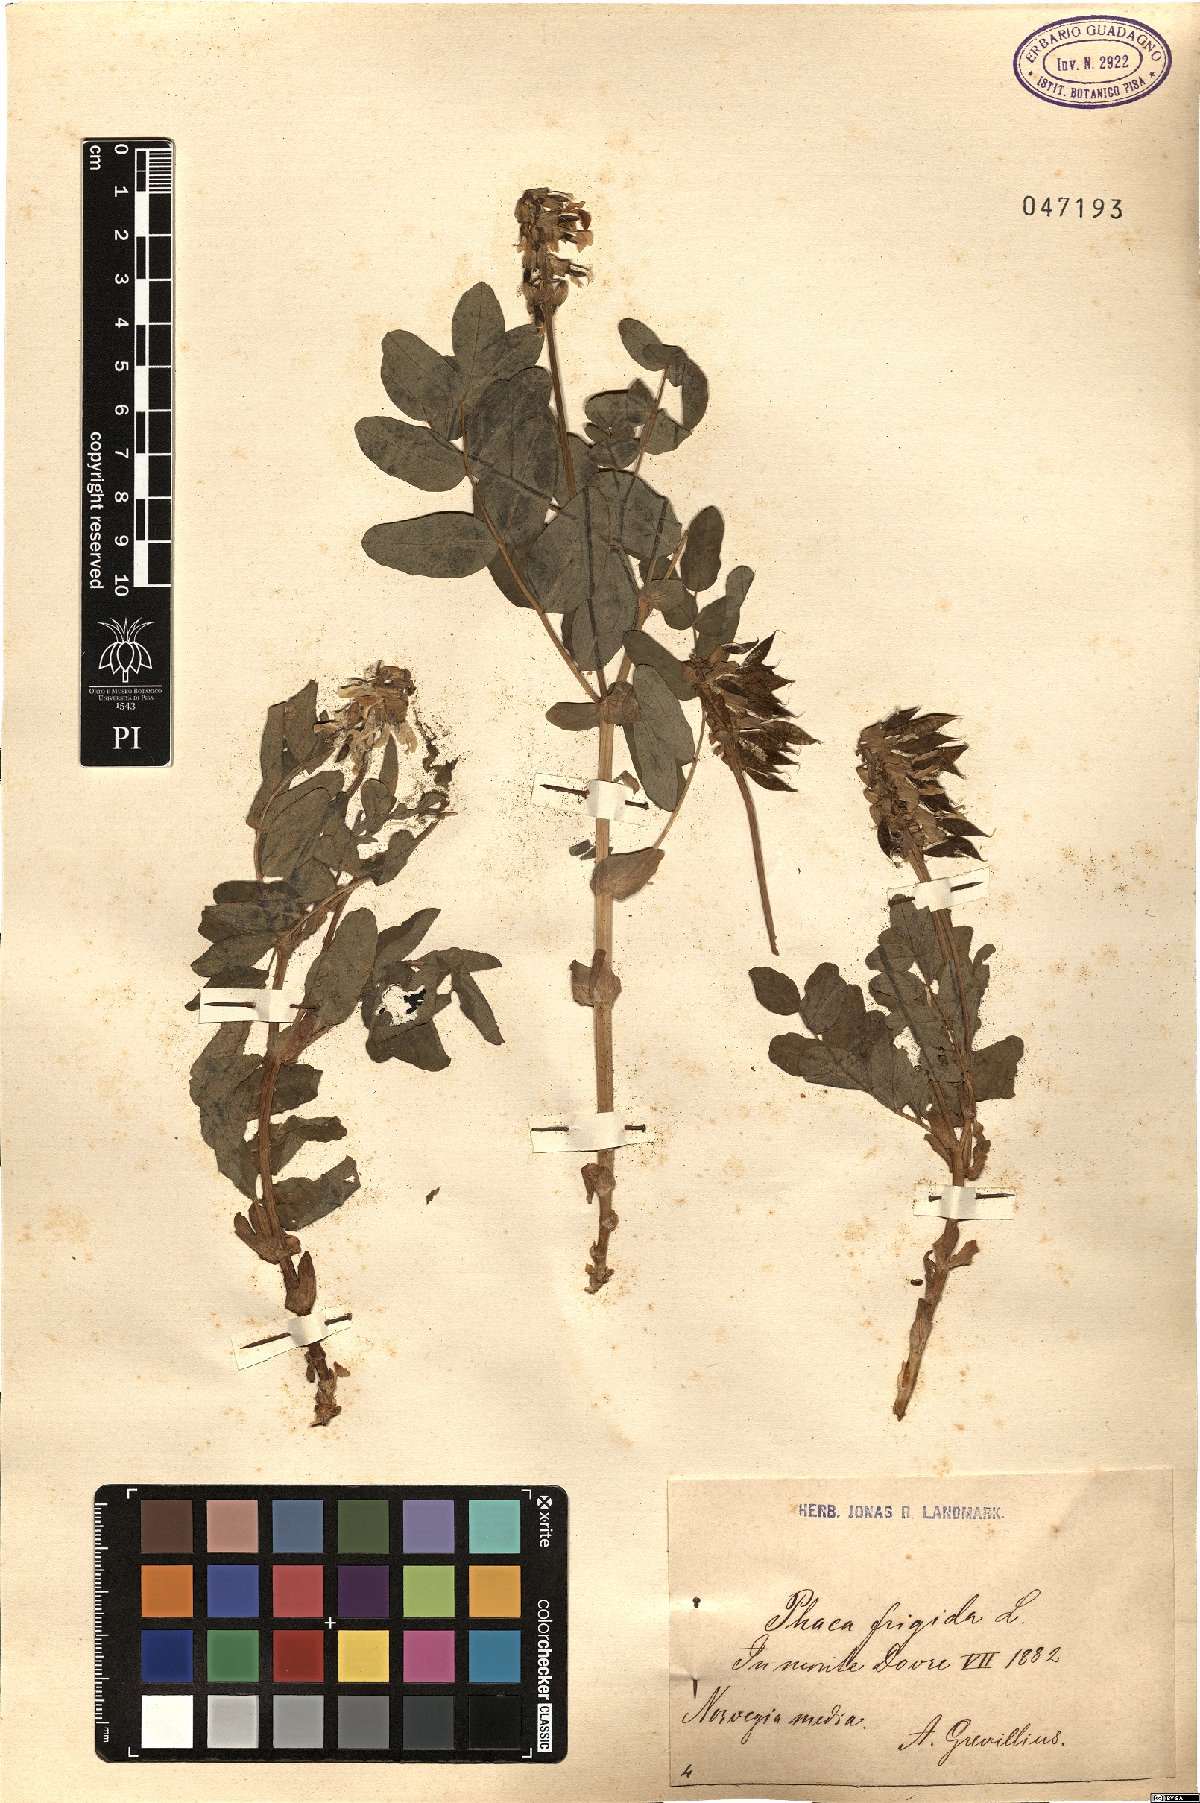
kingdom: Plantae
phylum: Tracheophyta
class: Magnoliopsida
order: Fabales
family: Fabaceae
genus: Astragalus
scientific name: Astragalus frigidus
